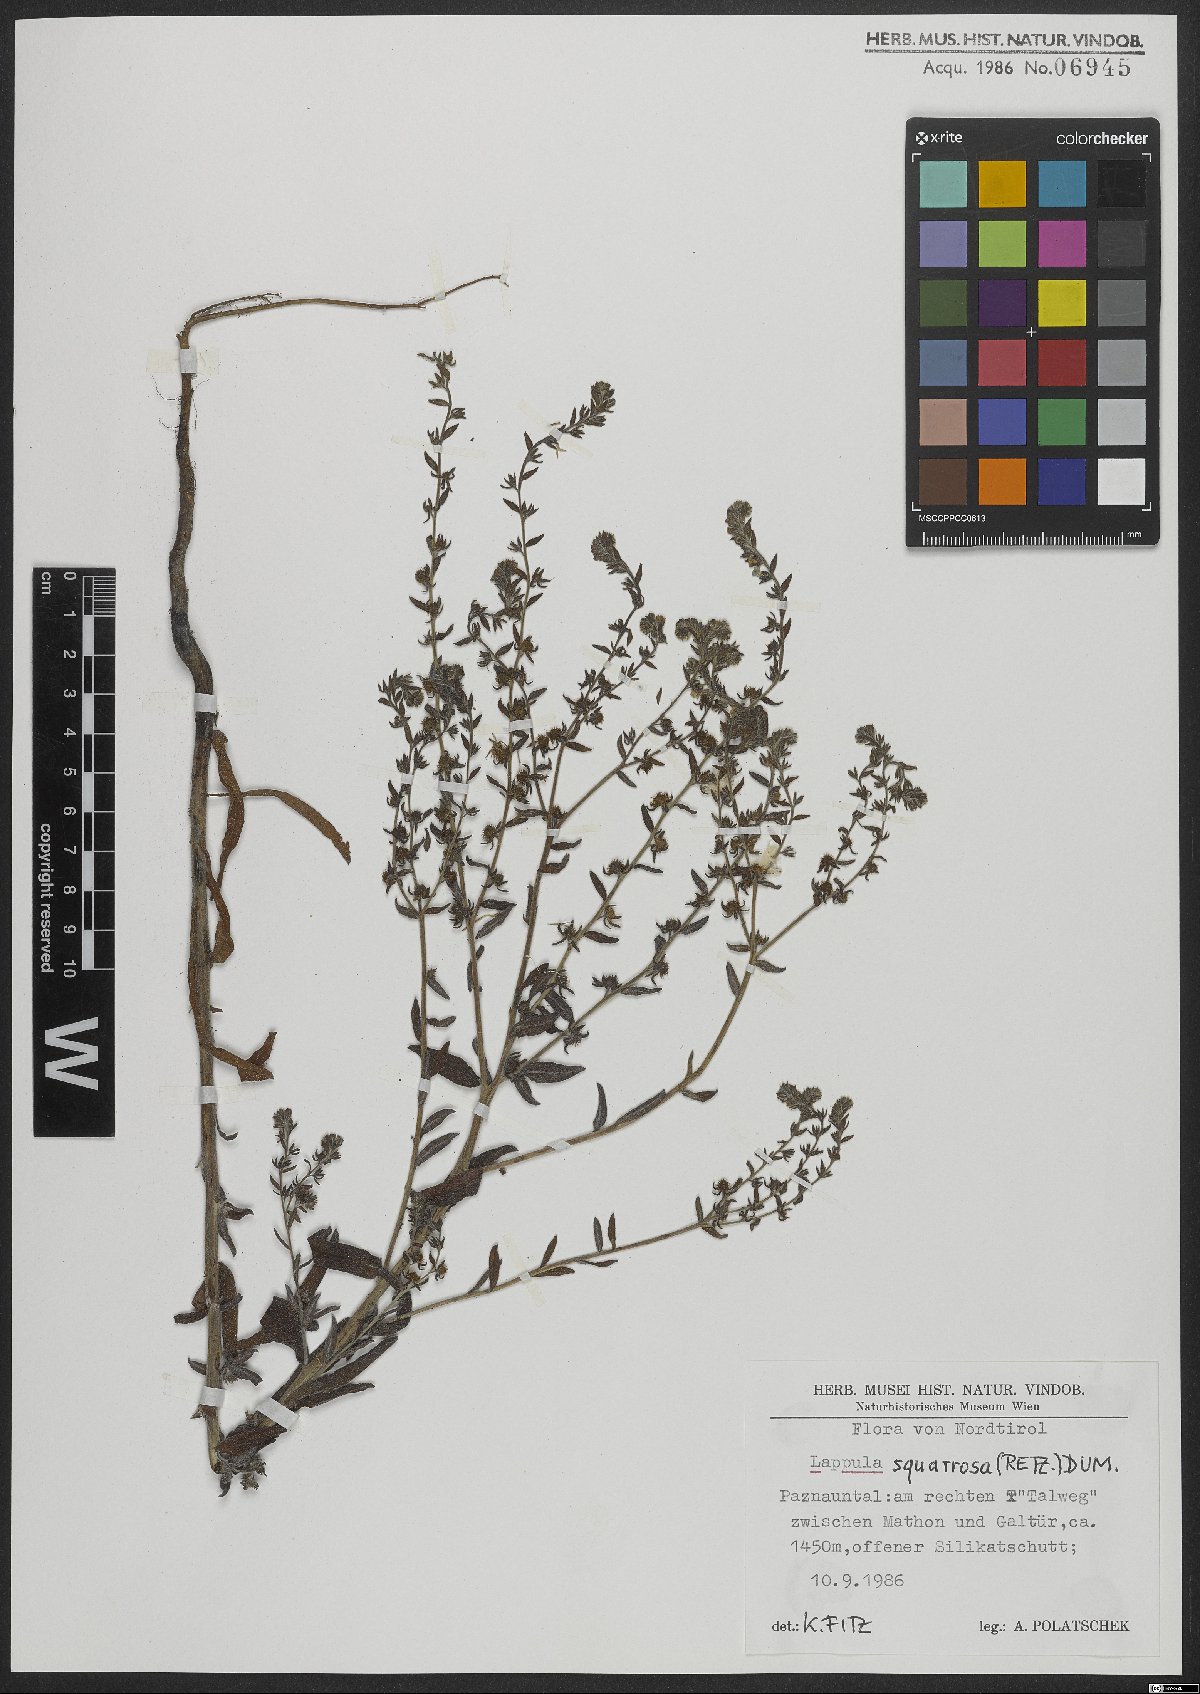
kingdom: Plantae
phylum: Tracheophyta
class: Magnoliopsida
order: Boraginales
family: Boraginaceae
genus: Lappula
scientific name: Lappula squarrosa
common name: European stickseed
